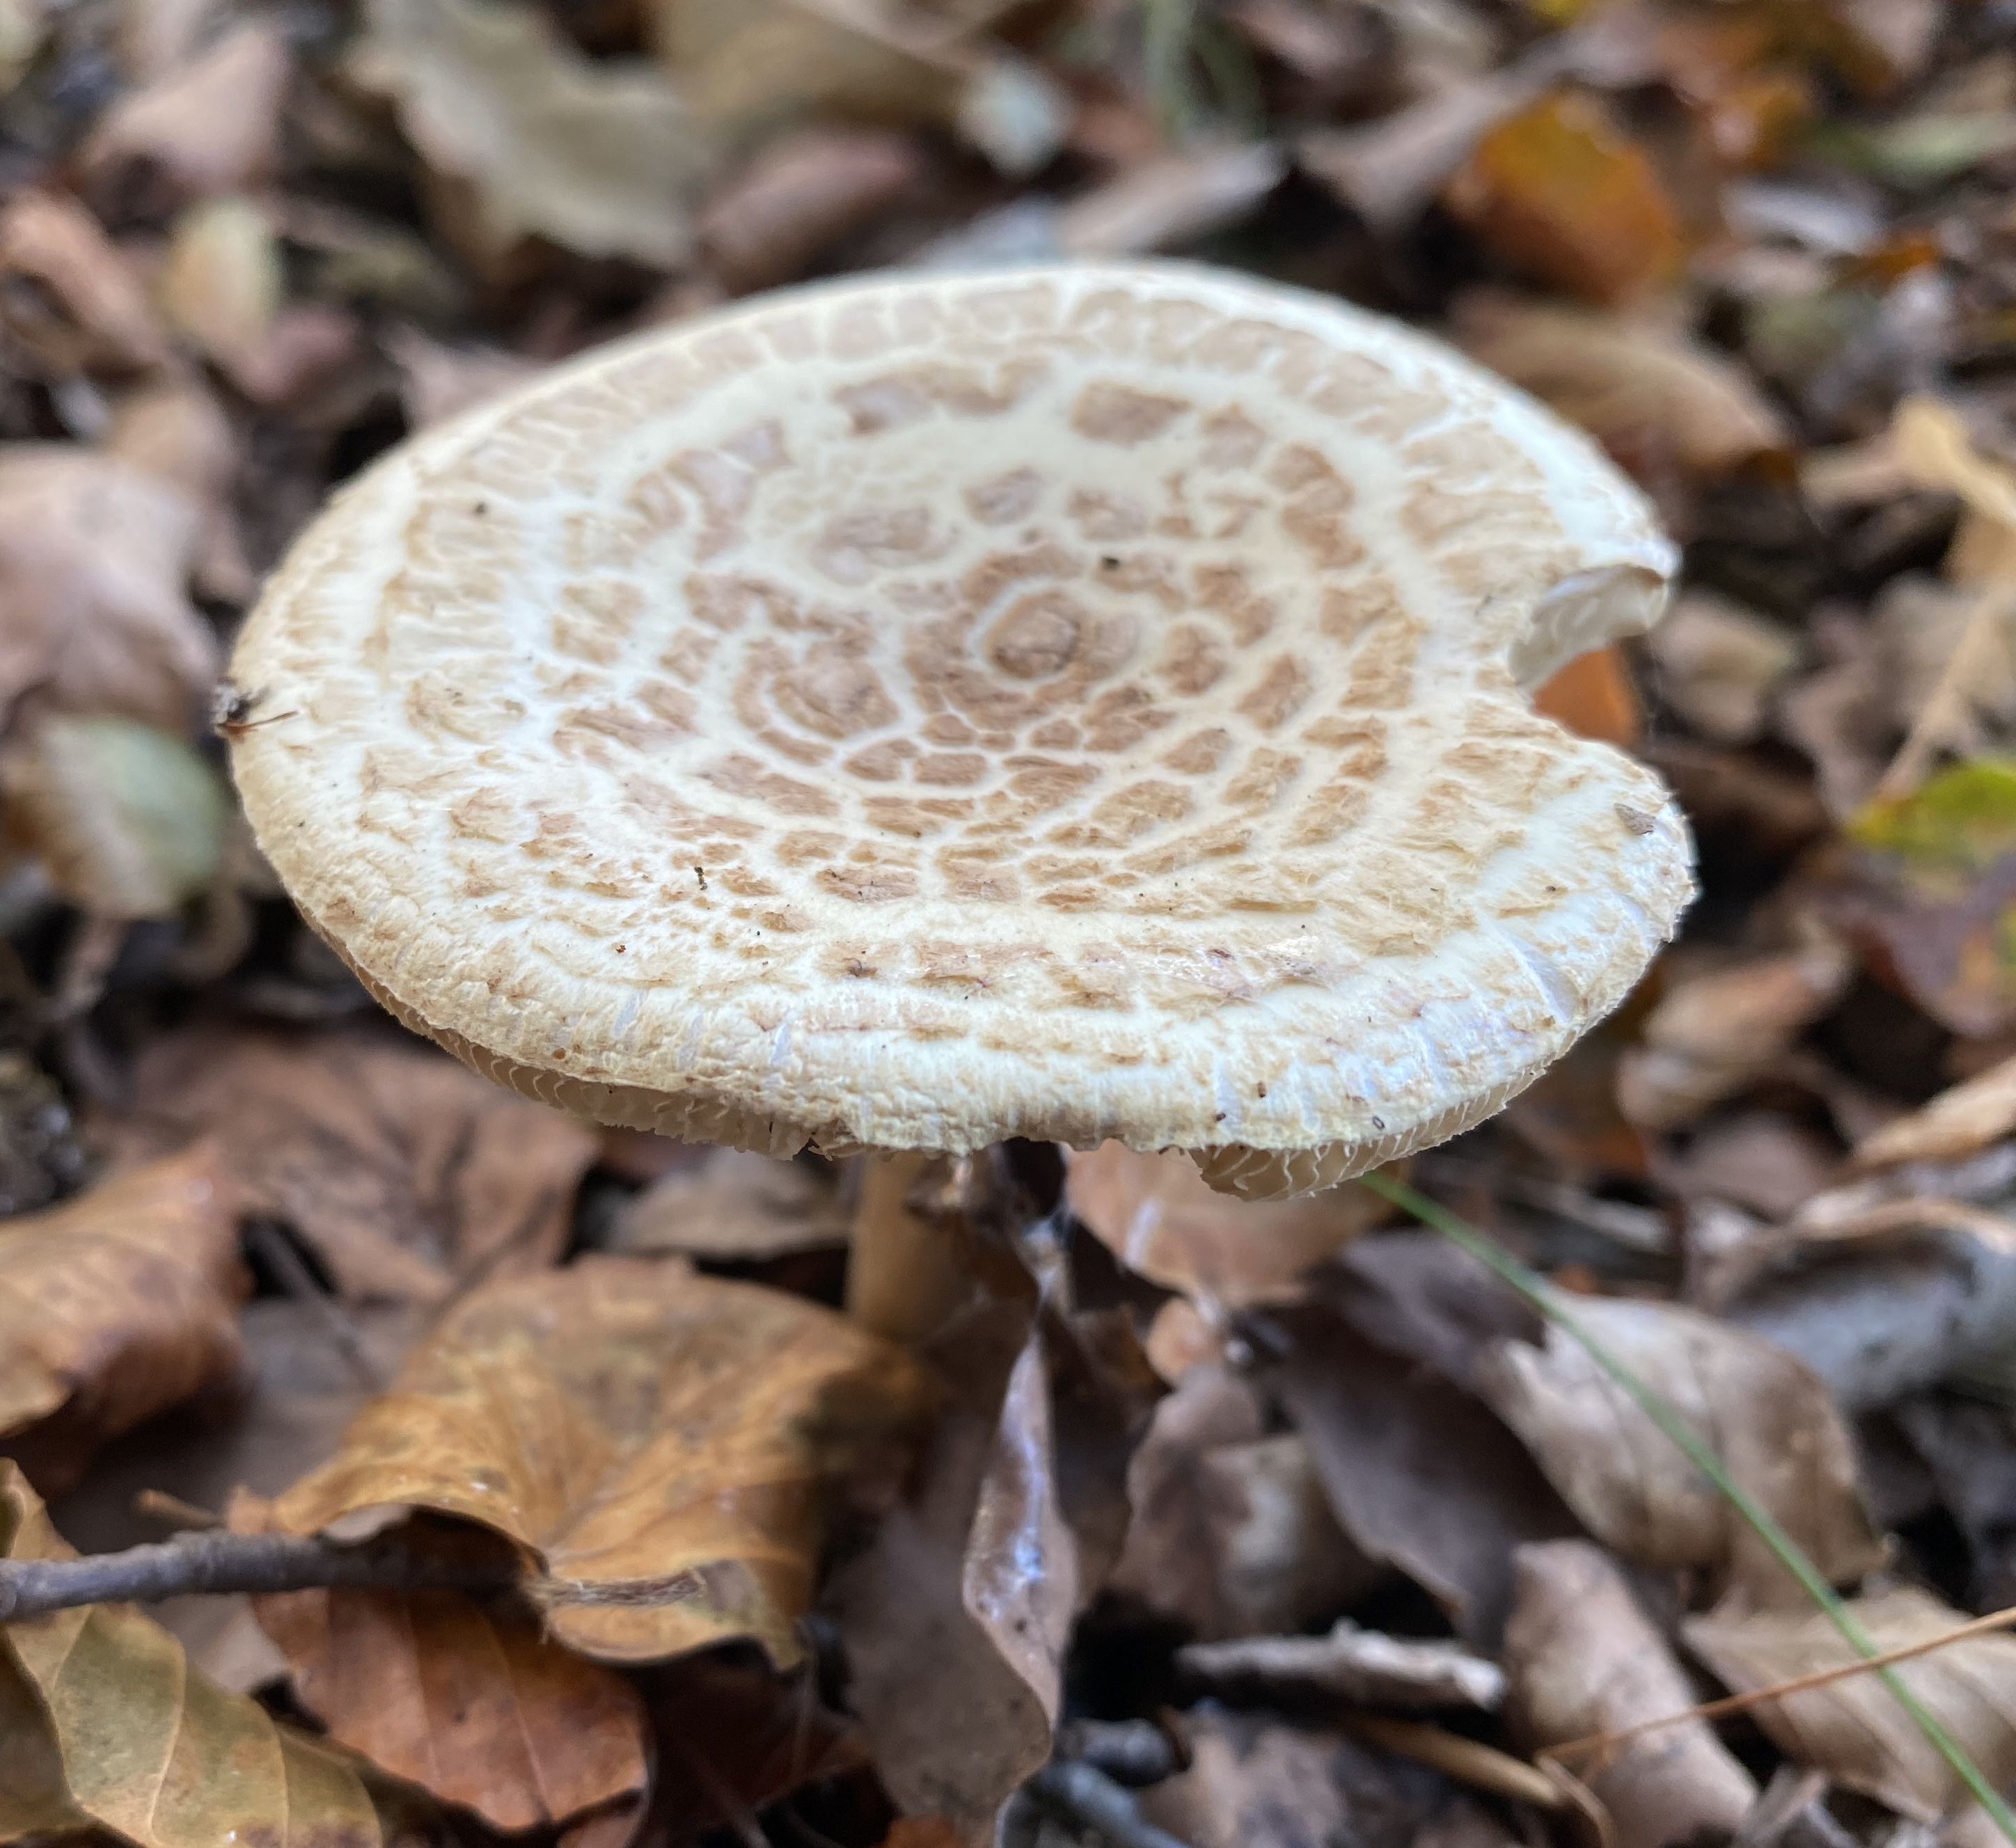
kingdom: Fungi
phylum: Basidiomycota
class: Agaricomycetes
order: Agaricales
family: Amanitaceae
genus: Amanita
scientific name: Amanita citrina
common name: False death-cap
